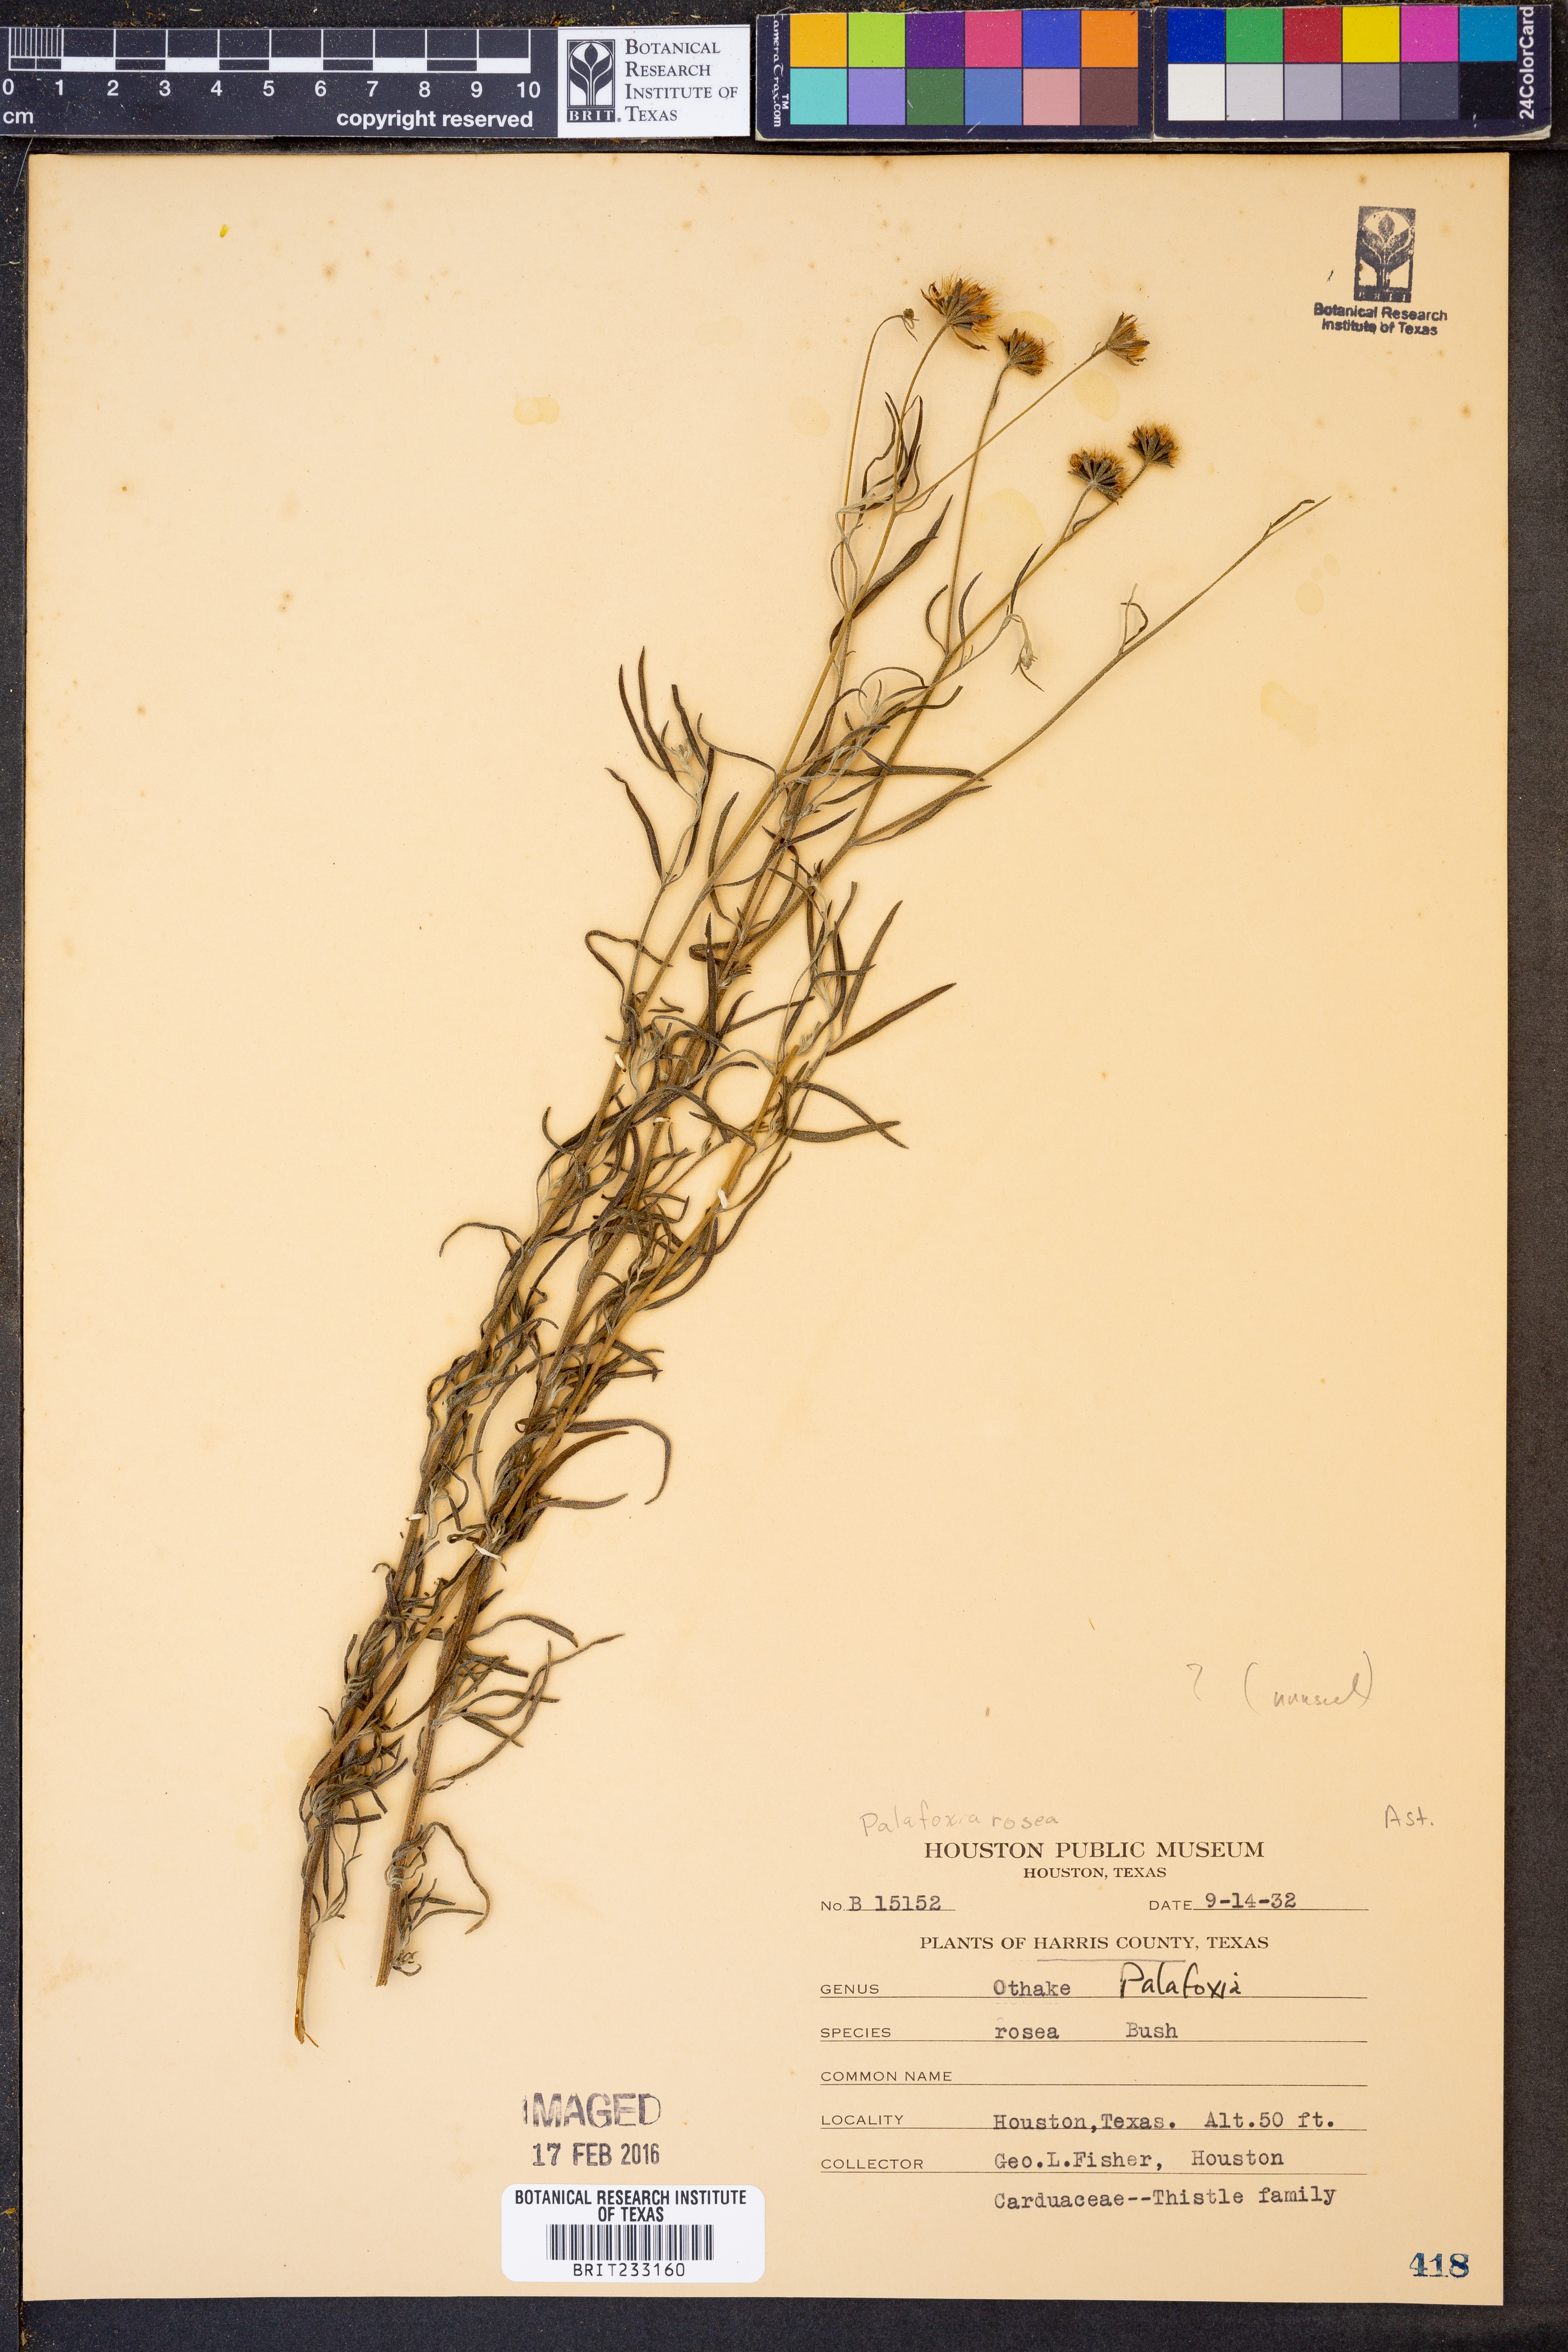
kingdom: Plantae
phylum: Tracheophyta
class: Magnoliopsida
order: Asterales
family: Asteraceae
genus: Palafoxia
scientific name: Palafoxia rosea
